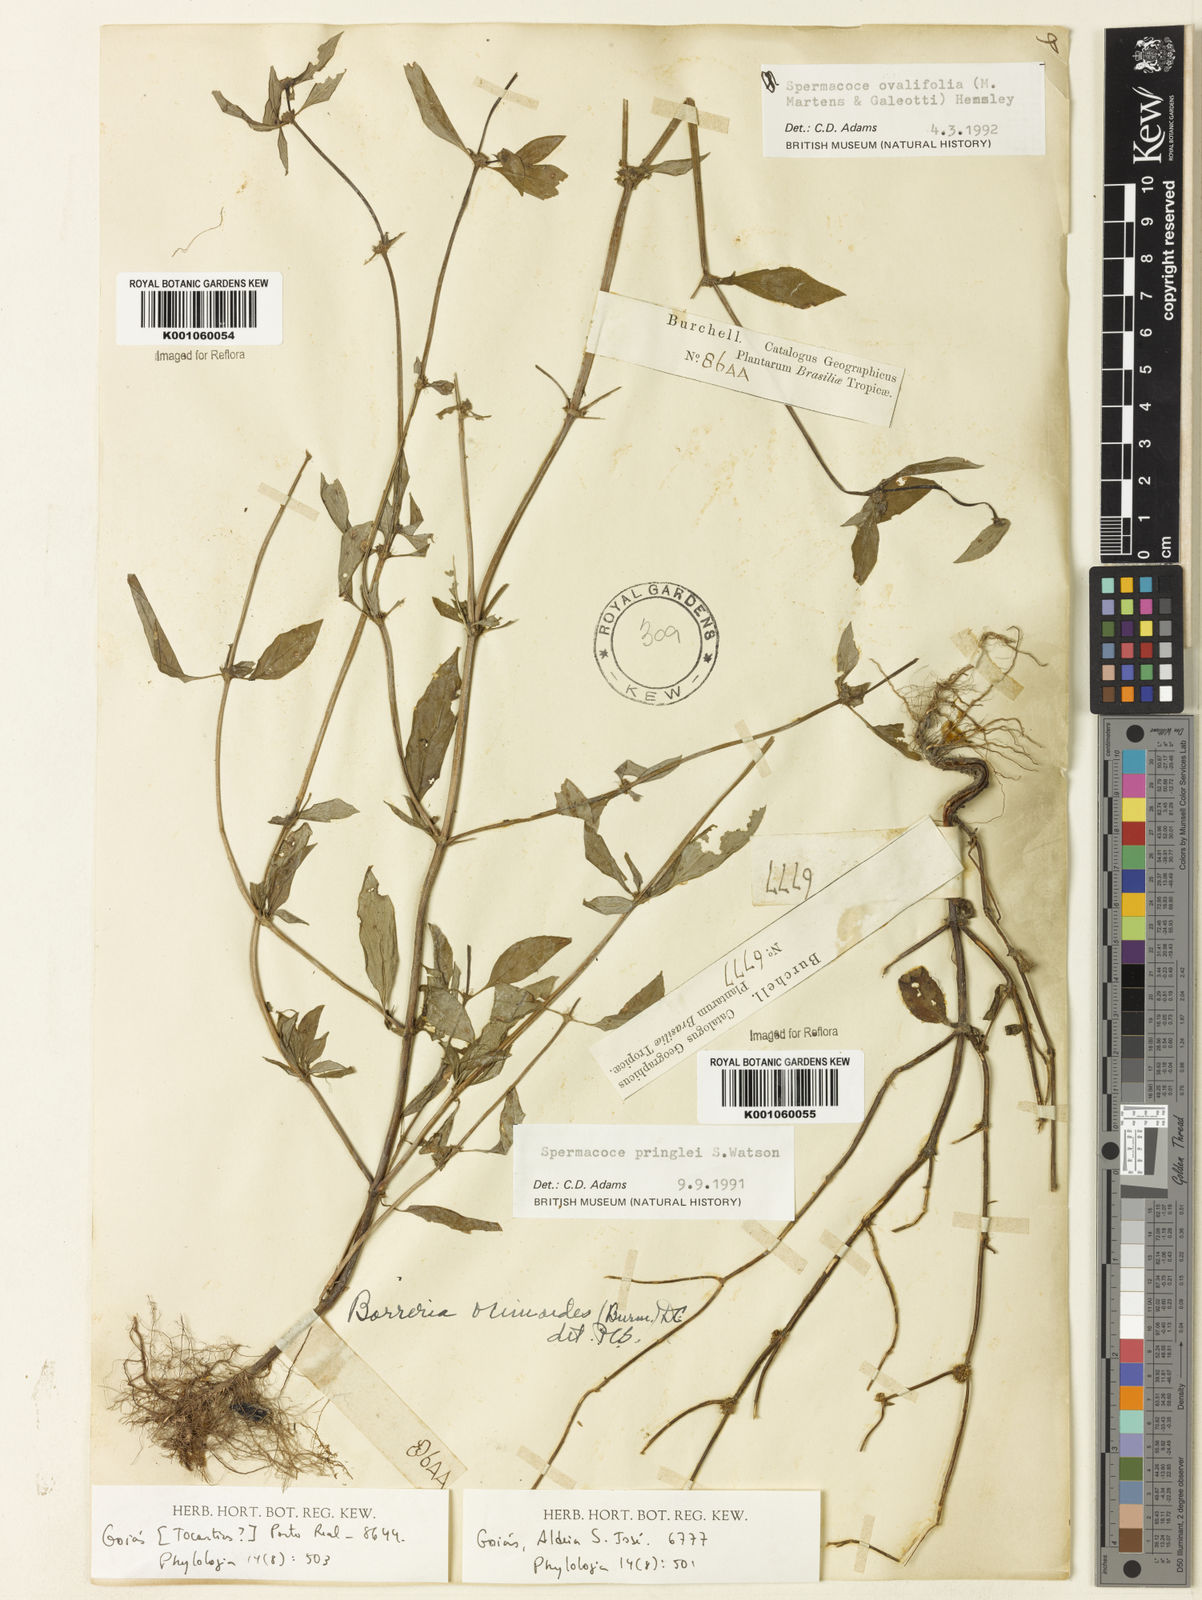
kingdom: Plantae
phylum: Tracheophyta
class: Magnoliopsida
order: Gentianales
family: Rubiaceae
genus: Spermacoce
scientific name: Spermacoce ovalifolia
